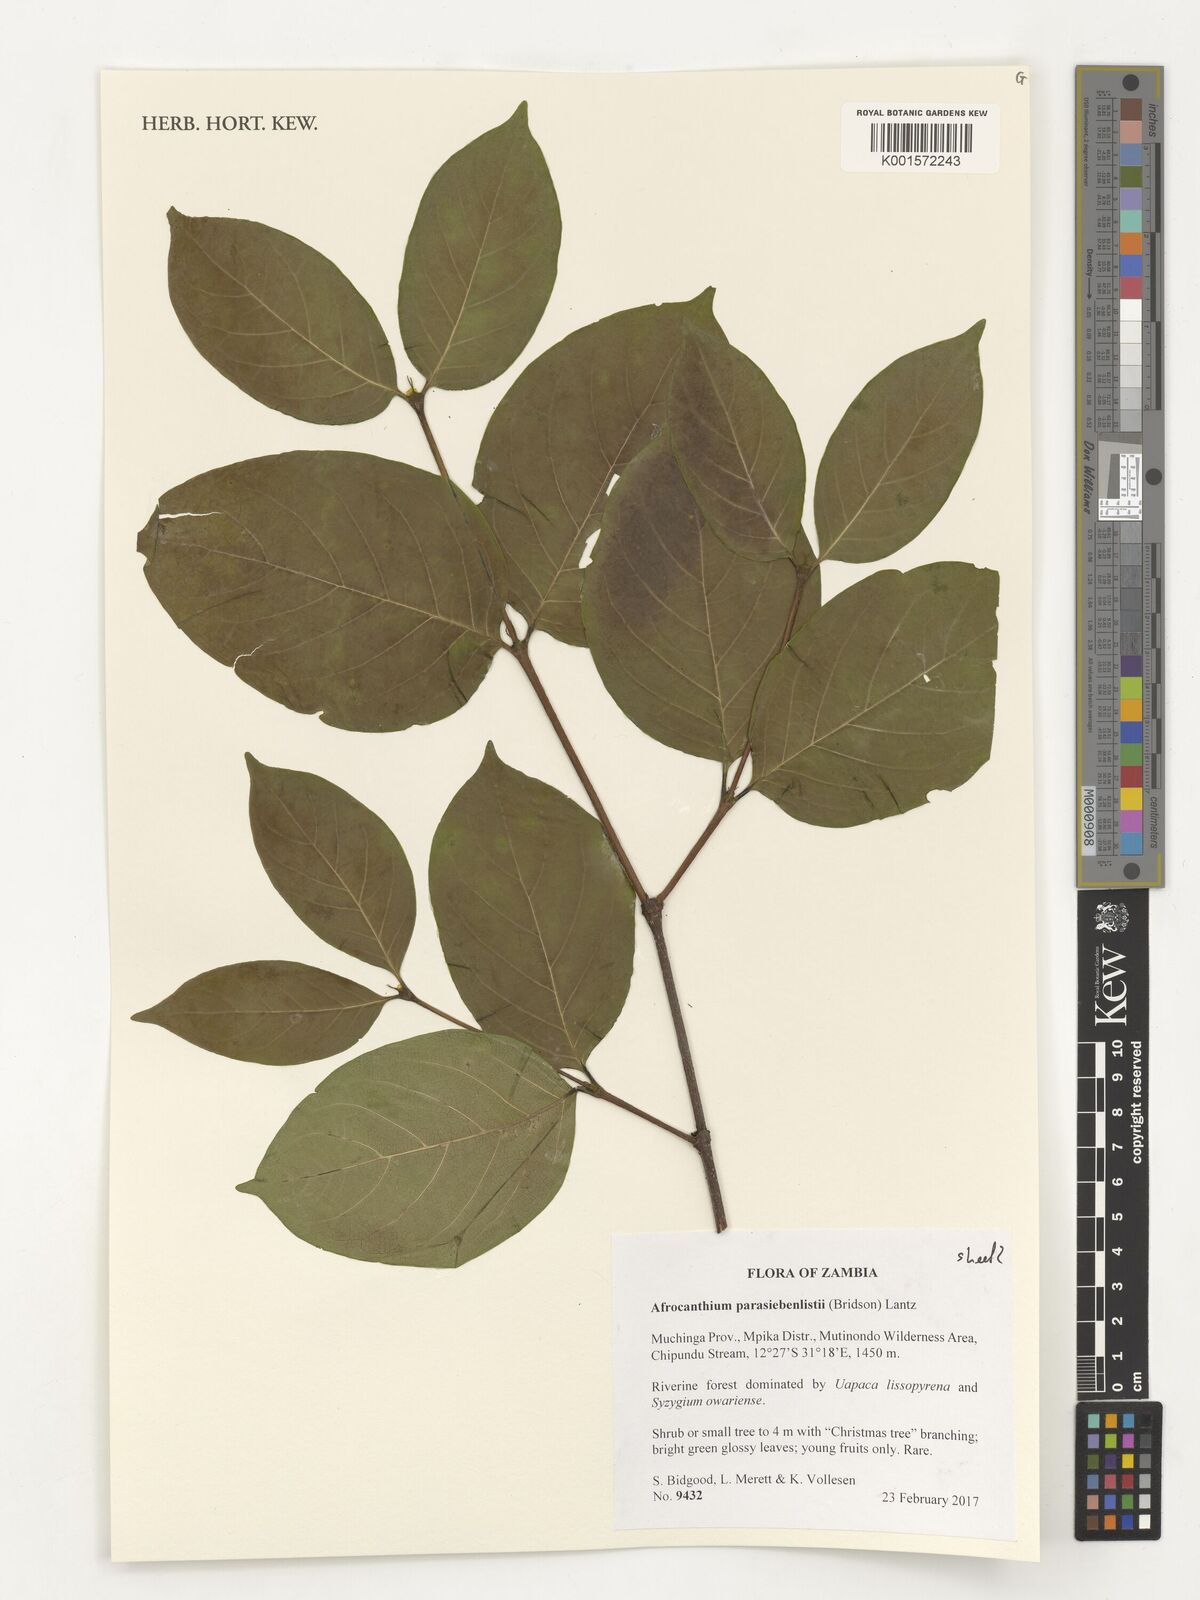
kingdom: Plantae
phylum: Tracheophyta
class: Magnoliopsida
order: Gentianales
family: Rubiaceae
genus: Afrocanthium
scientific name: Afrocanthium parasiebenlistii
